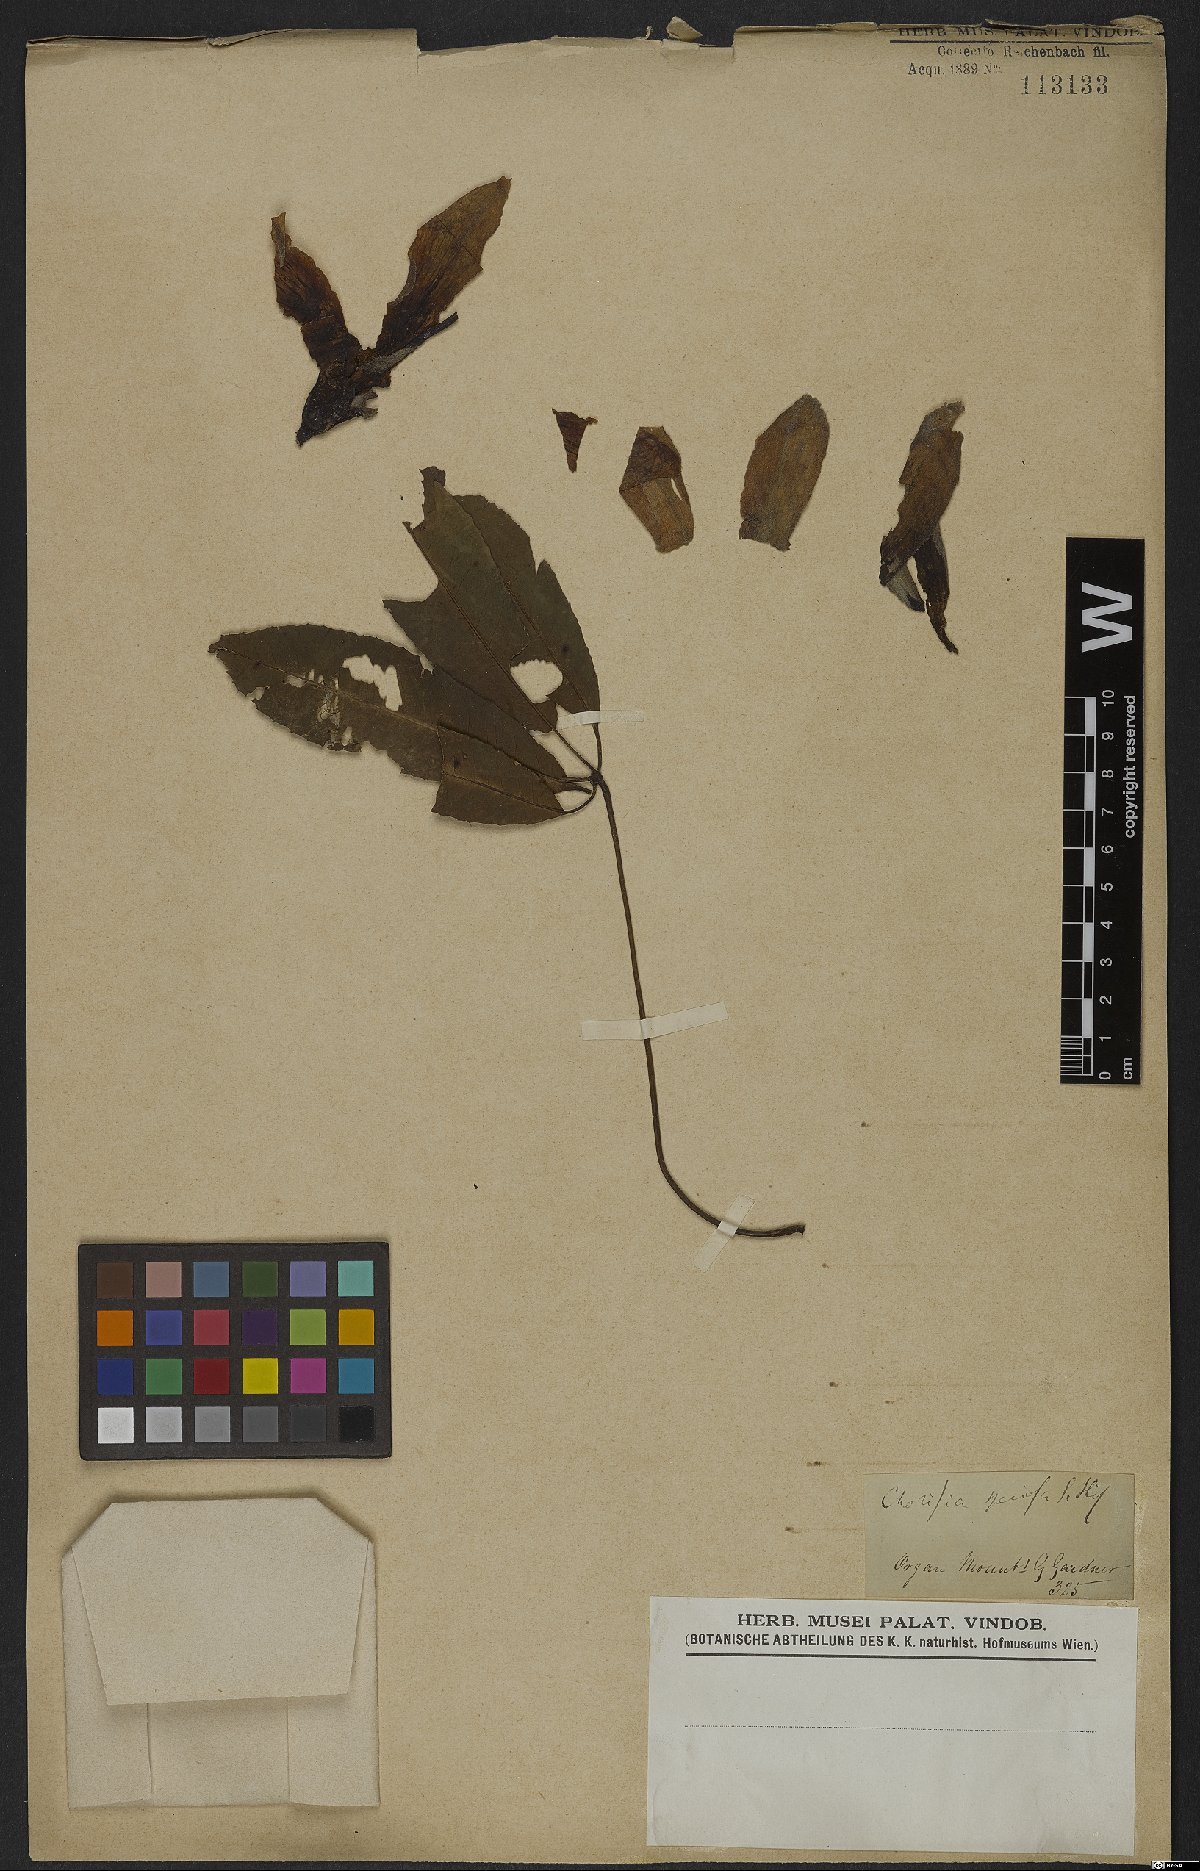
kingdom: Plantae
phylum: Tracheophyta
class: Magnoliopsida
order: Malvales
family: Malvaceae
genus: Ceiba
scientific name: Ceiba speciosa
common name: Silk-floss tree
